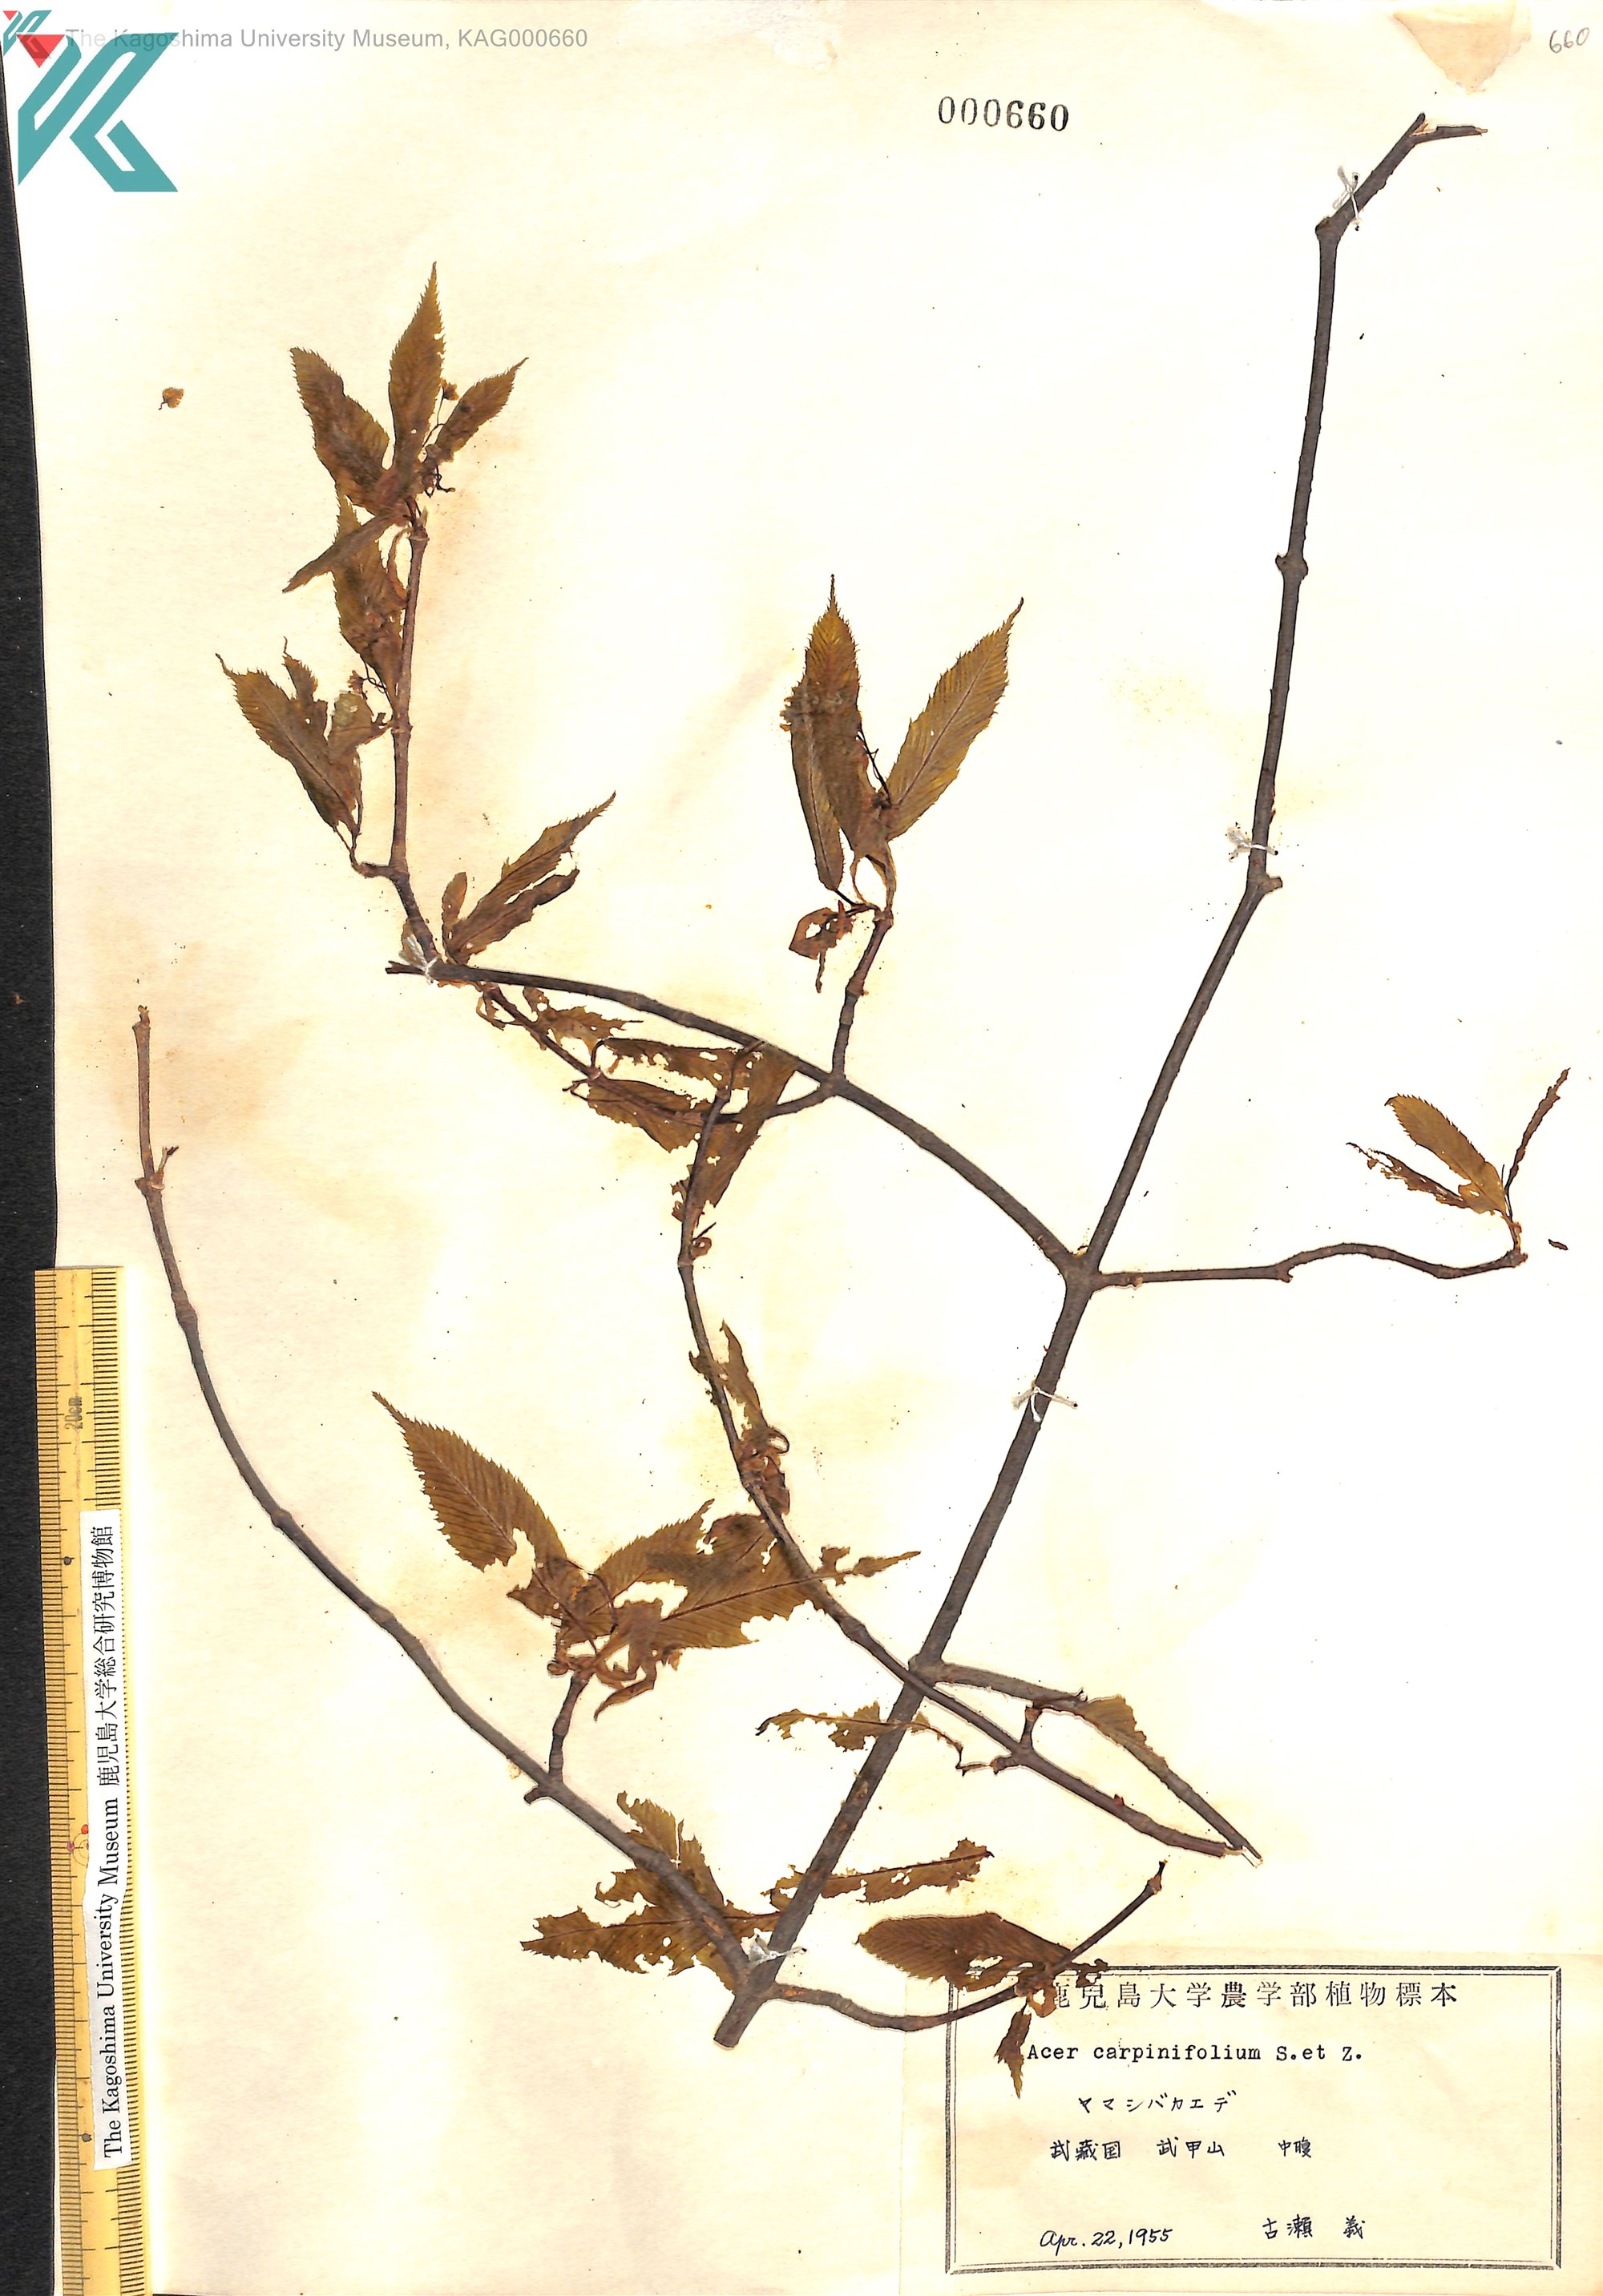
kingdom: Plantae
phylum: Tracheophyta
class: Magnoliopsida
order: Sapindales
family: Sapindaceae
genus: Acer
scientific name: Acer carpinifolium
